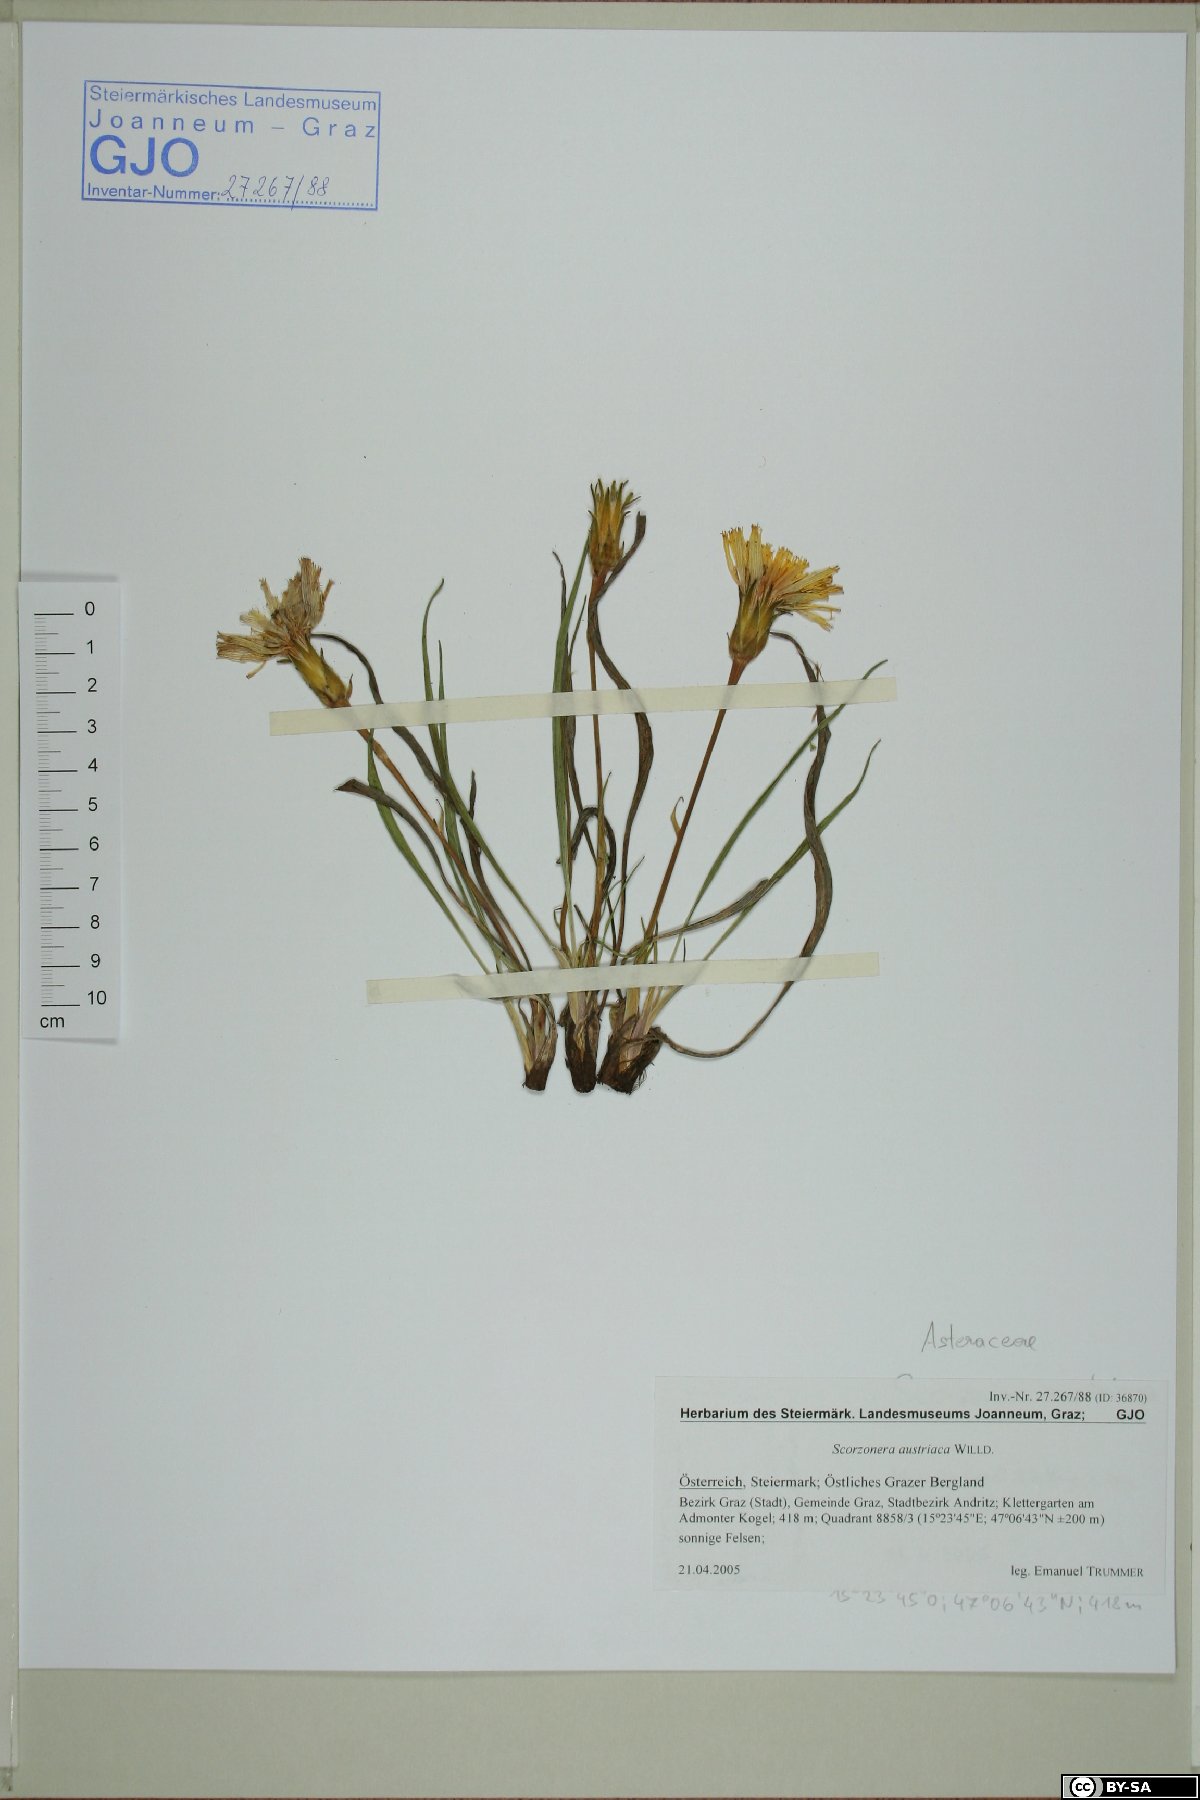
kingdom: Plantae
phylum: Tracheophyta
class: Magnoliopsida
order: Asterales
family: Asteraceae
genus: Takhtajaniantha
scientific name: Takhtajaniantha austriaca
